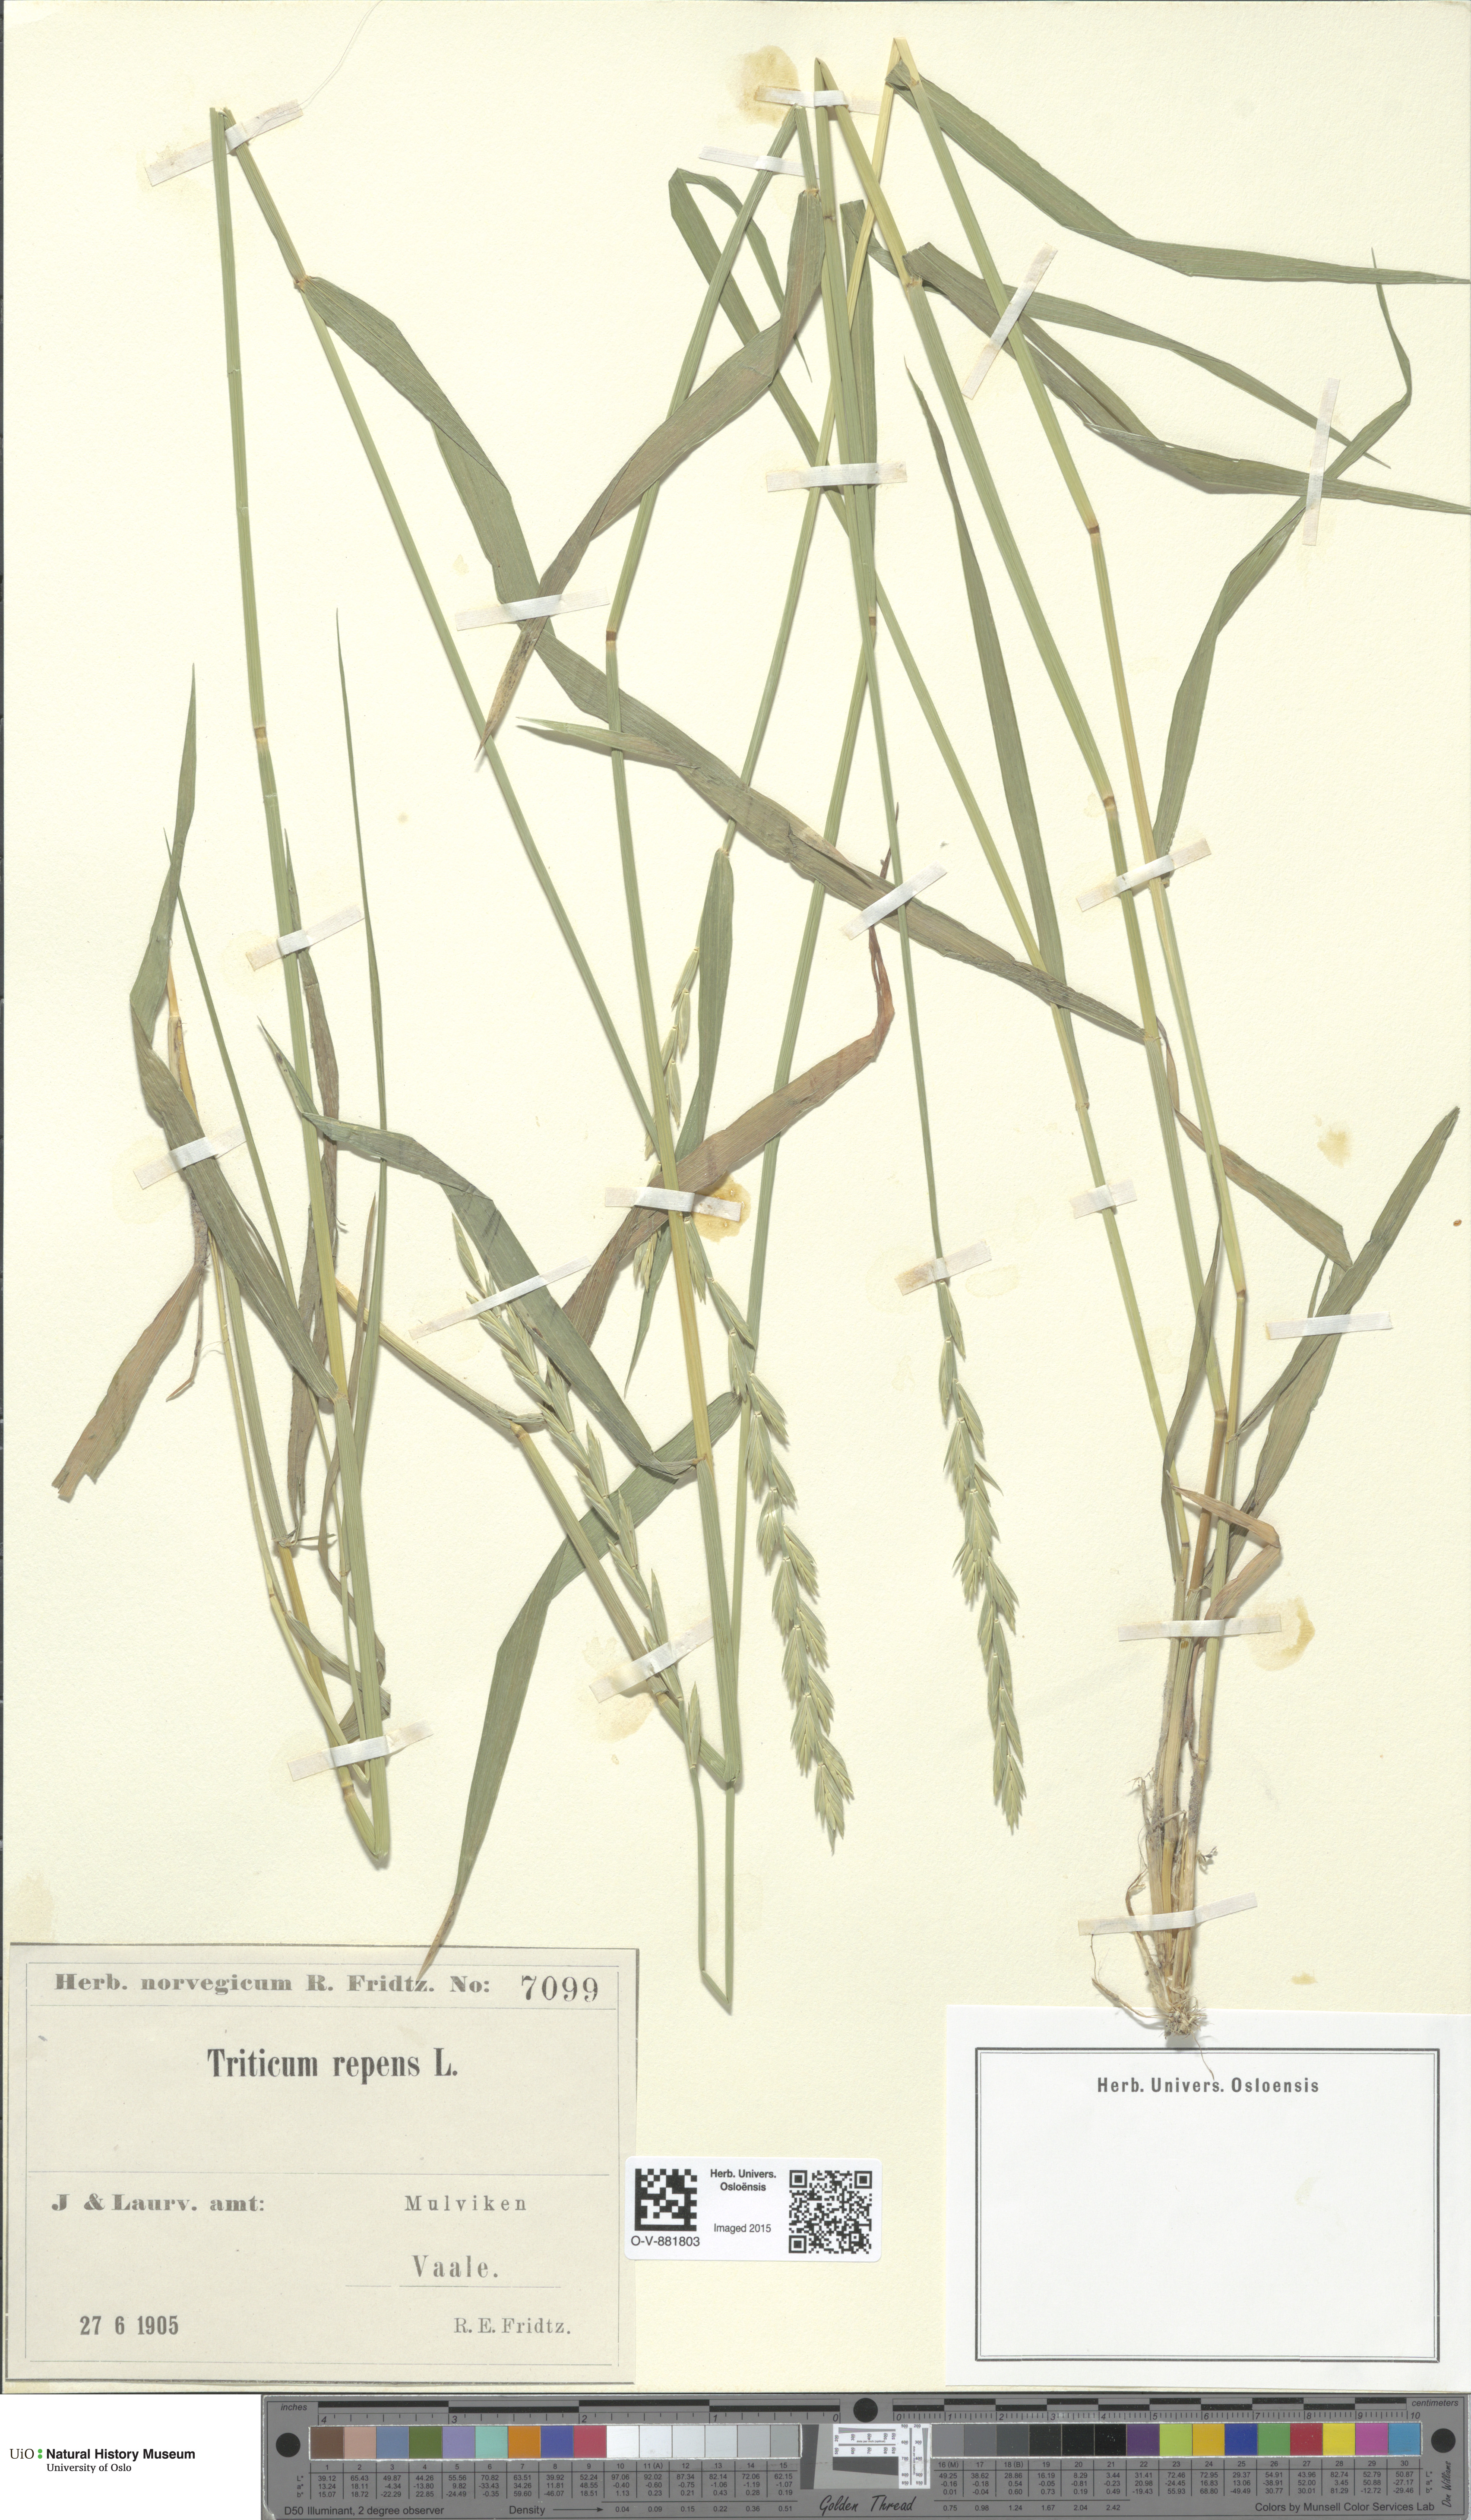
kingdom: Plantae
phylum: Tracheophyta
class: Liliopsida
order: Poales
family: Poaceae
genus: Elymus
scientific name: Elymus repens
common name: Quackgrass
